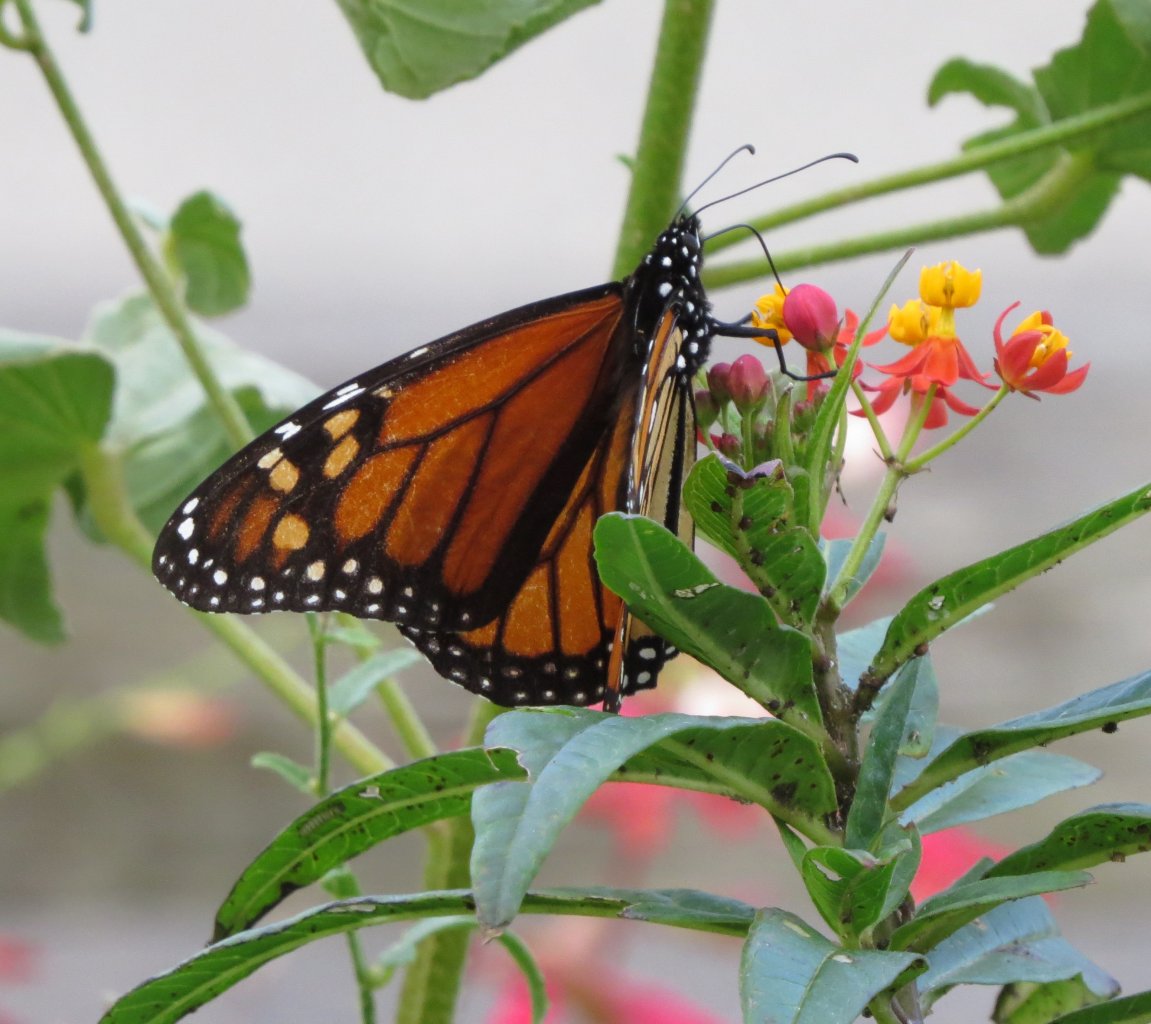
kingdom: Animalia
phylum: Arthropoda
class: Insecta
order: Lepidoptera
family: Nymphalidae
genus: Danaus
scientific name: Danaus plexippus
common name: Monarch
